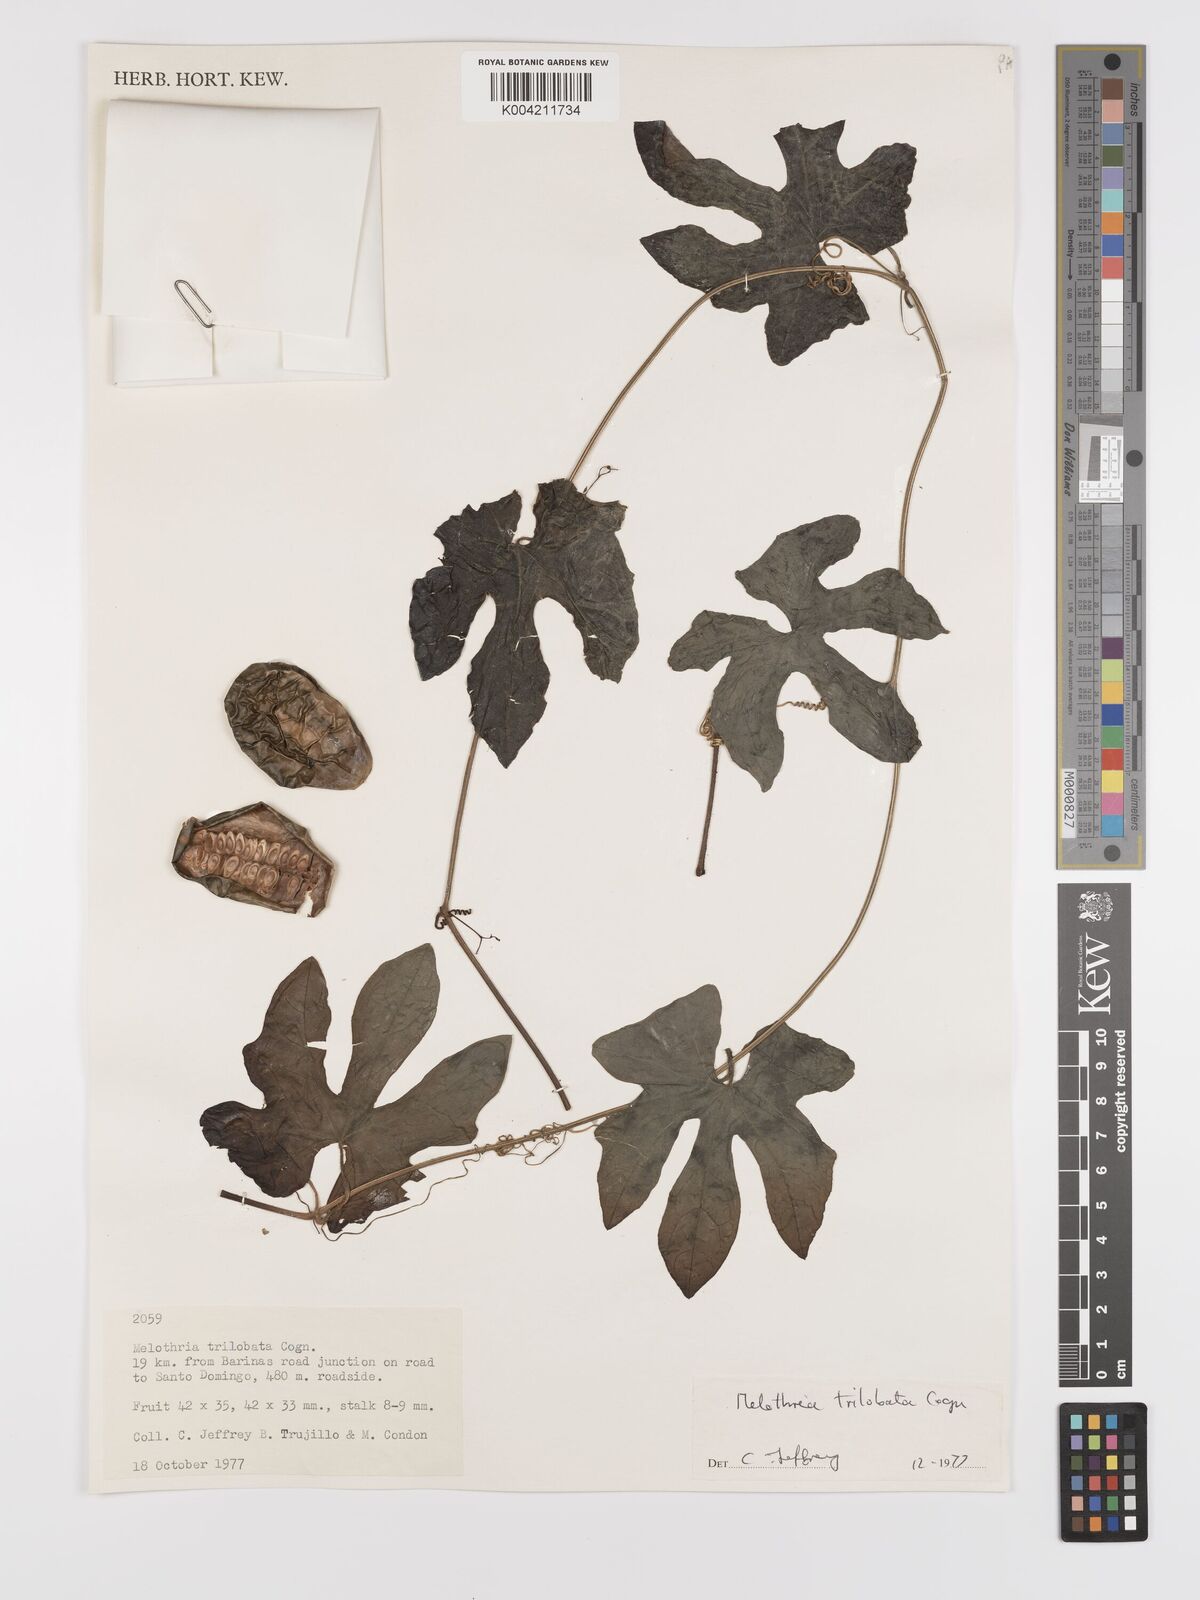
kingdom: Plantae
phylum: Tracheophyta
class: Magnoliopsida
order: Cucurbitales
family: Cucurbitaceae
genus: Melothria
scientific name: Melothria trilobata
